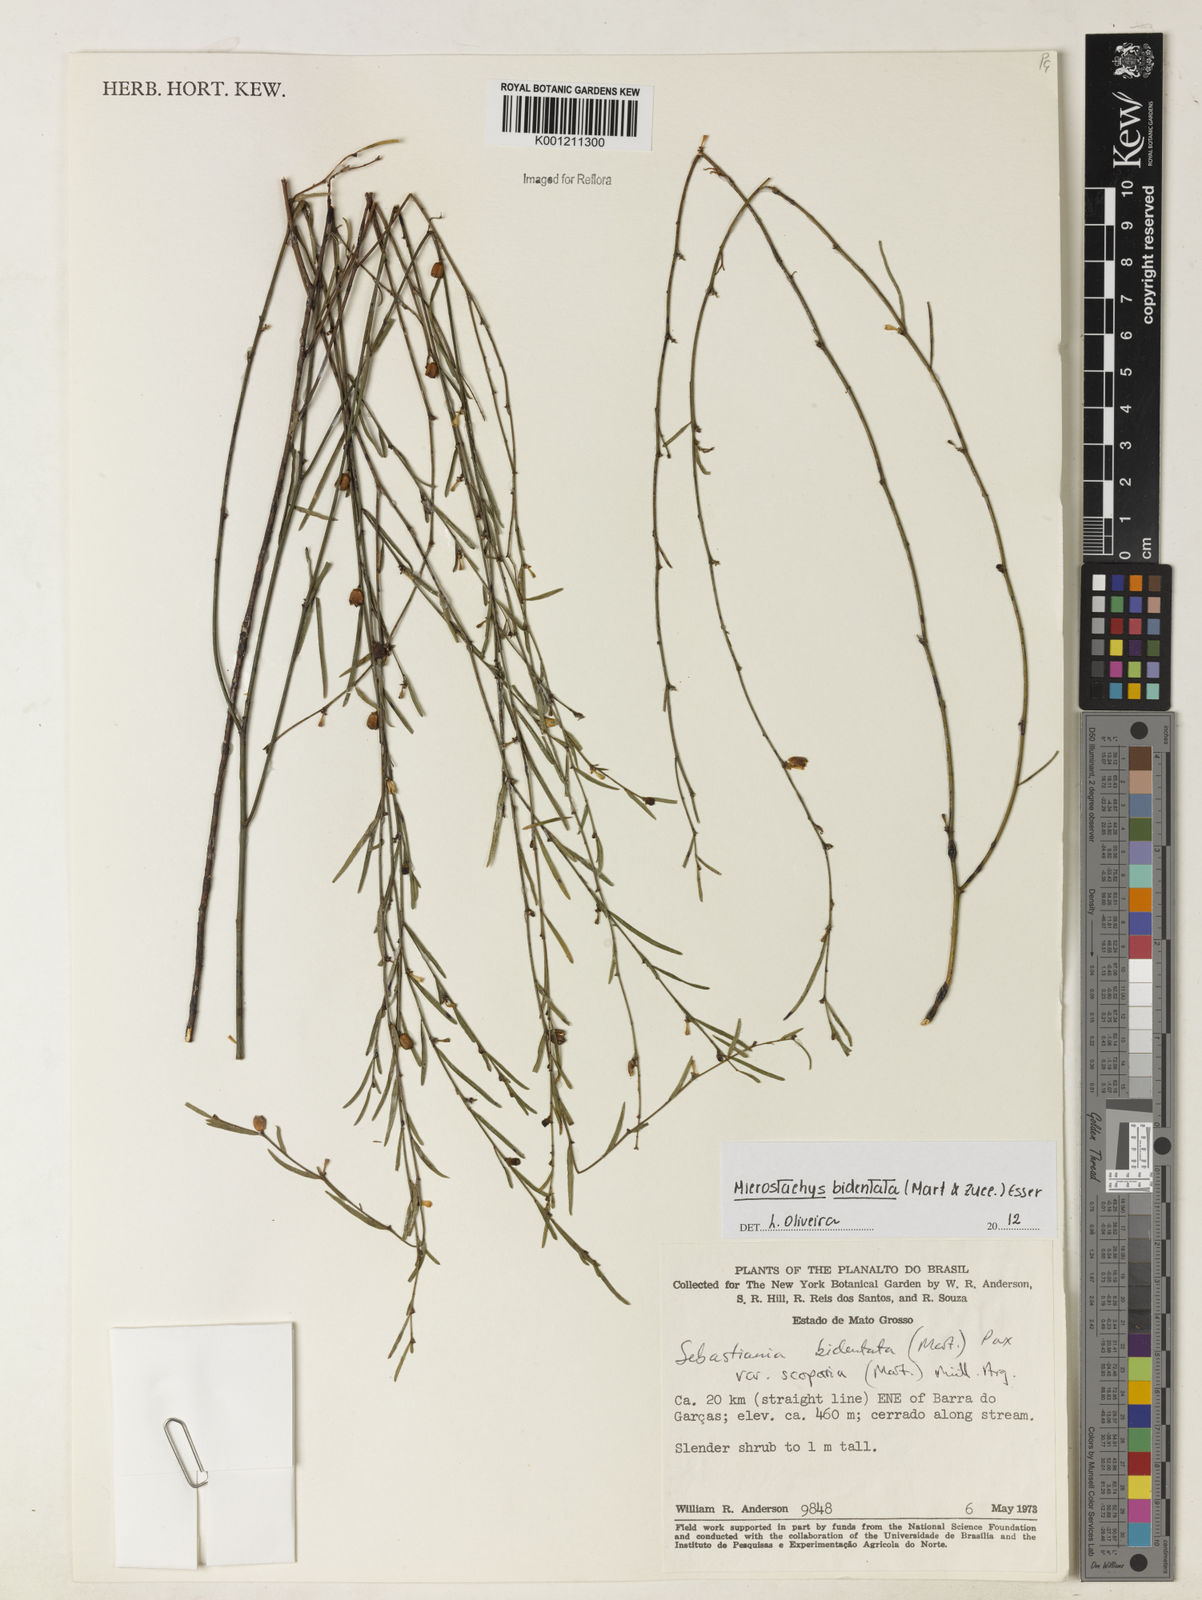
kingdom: Plantae
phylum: Tracheophyta
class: Magnoliopsida
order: Malpighiales
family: Euphorbiaceae
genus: Microstachys
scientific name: Microstachys bidentata
